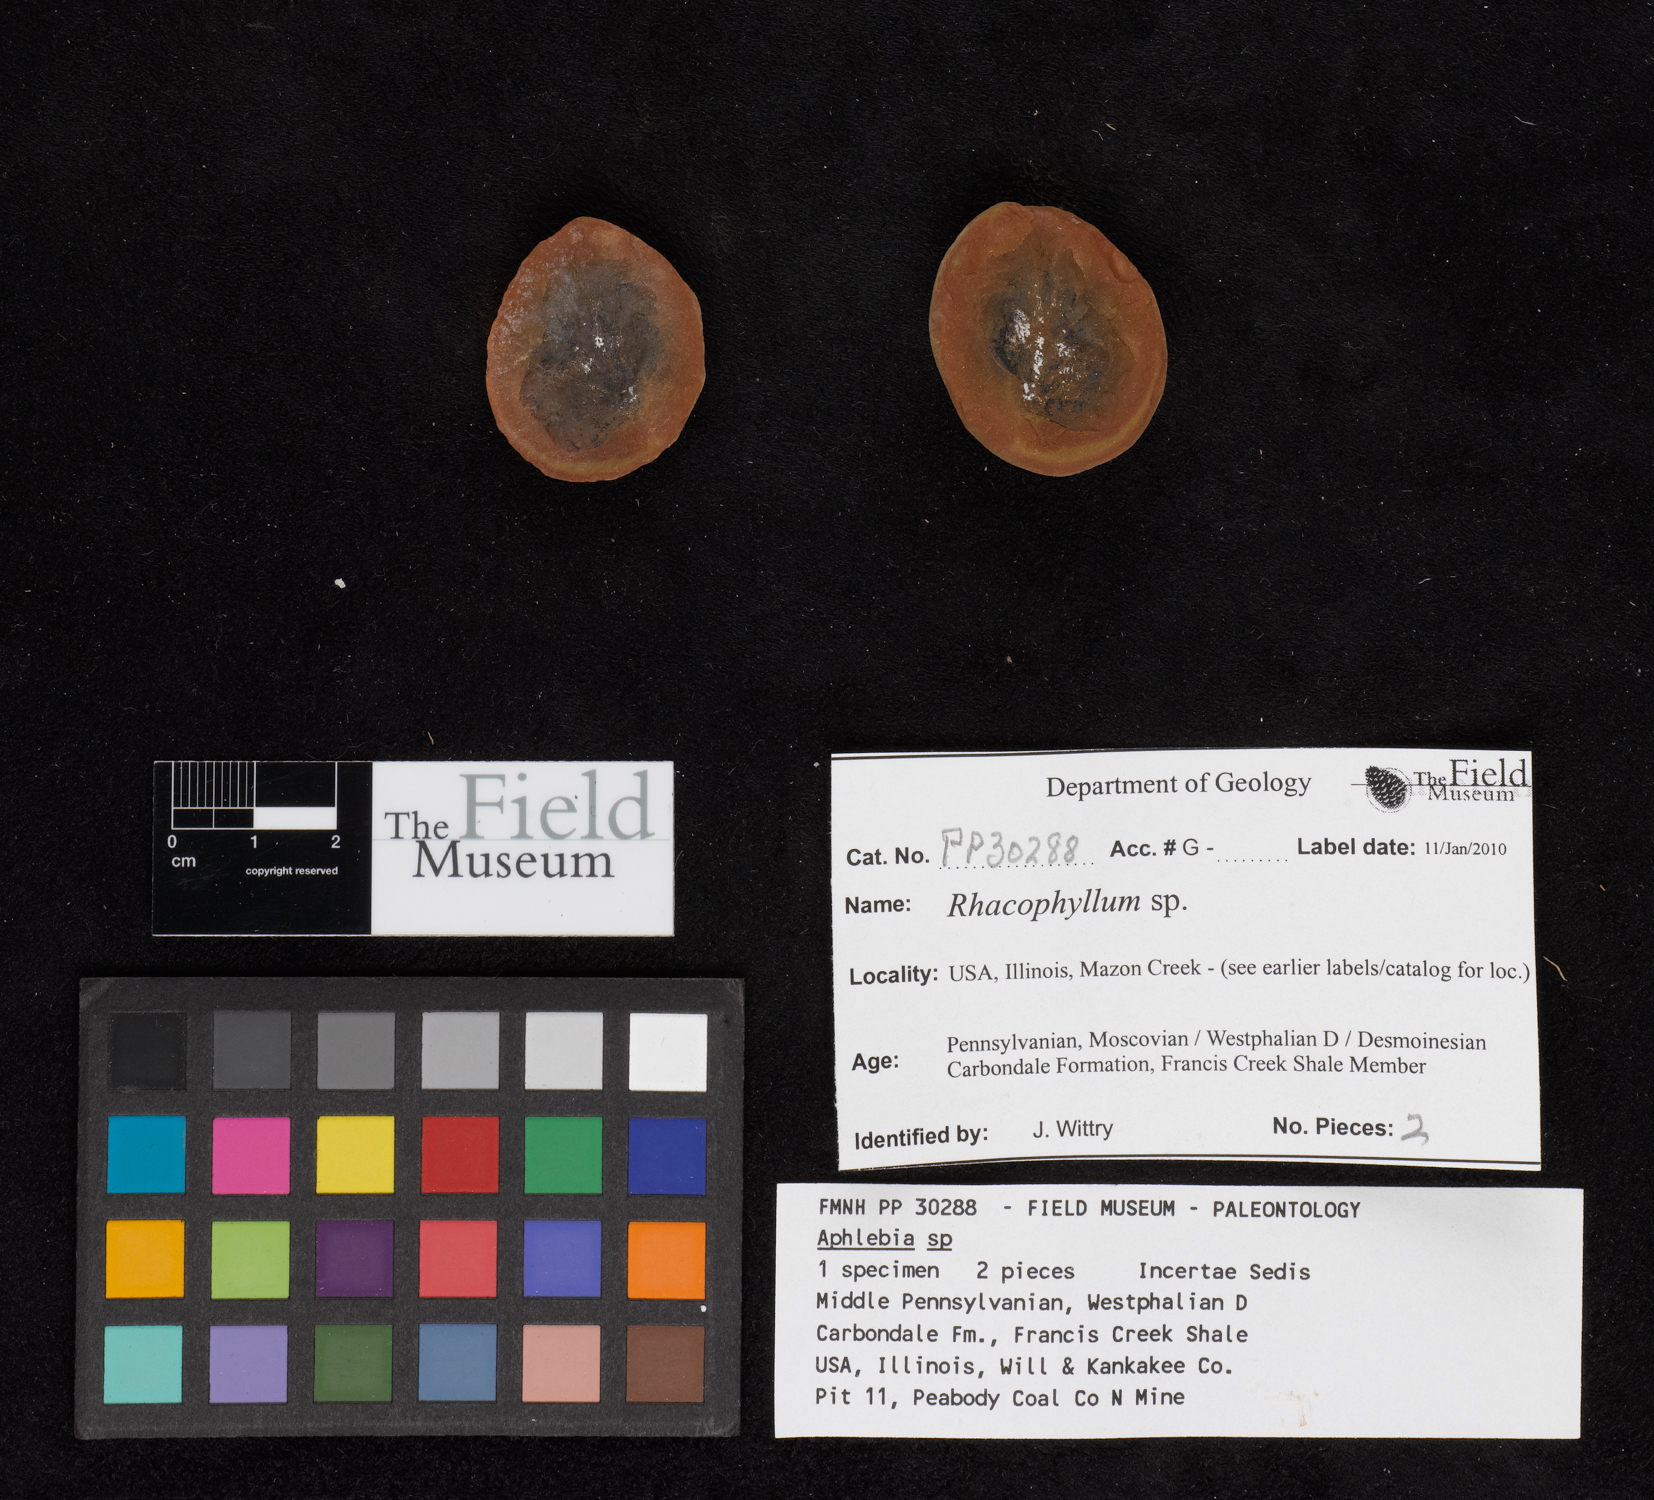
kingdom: Plantae
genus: Rhacophyllum
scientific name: Rhacophyllum
